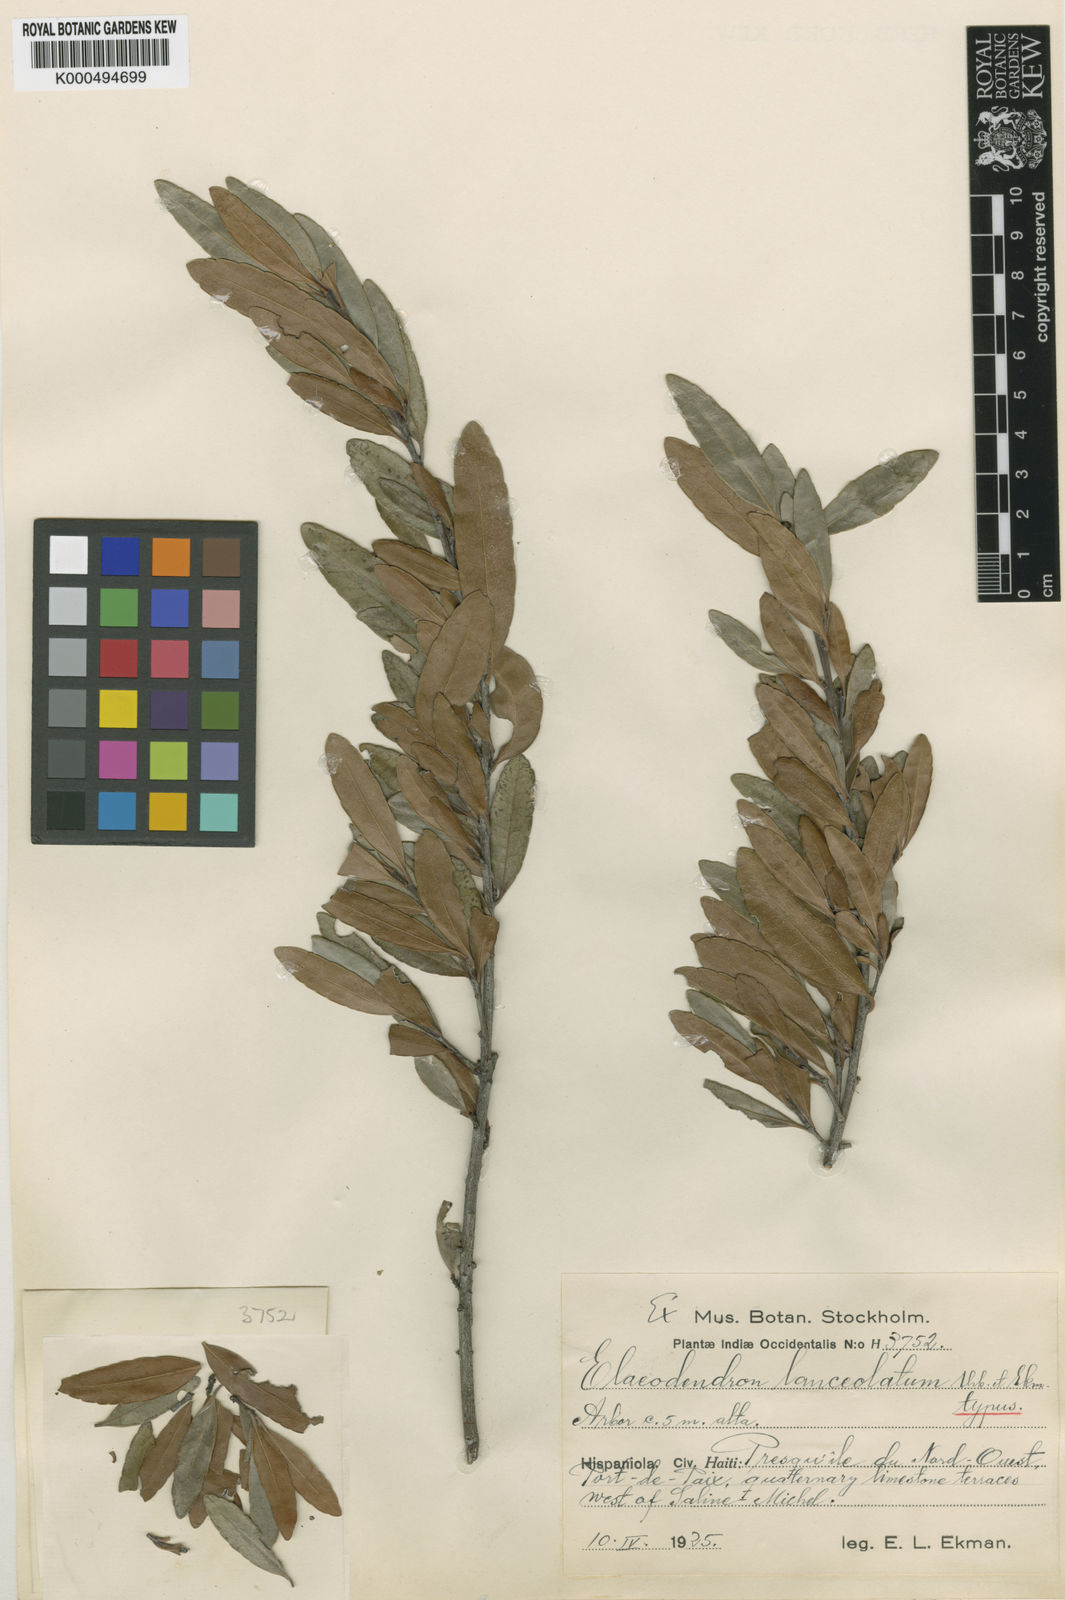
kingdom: Plantae
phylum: Tracheophyta
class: Magnoliopsida
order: Celastrales
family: Celastraceae
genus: Elaeodendron
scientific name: Elaeodendron lanceolatum
